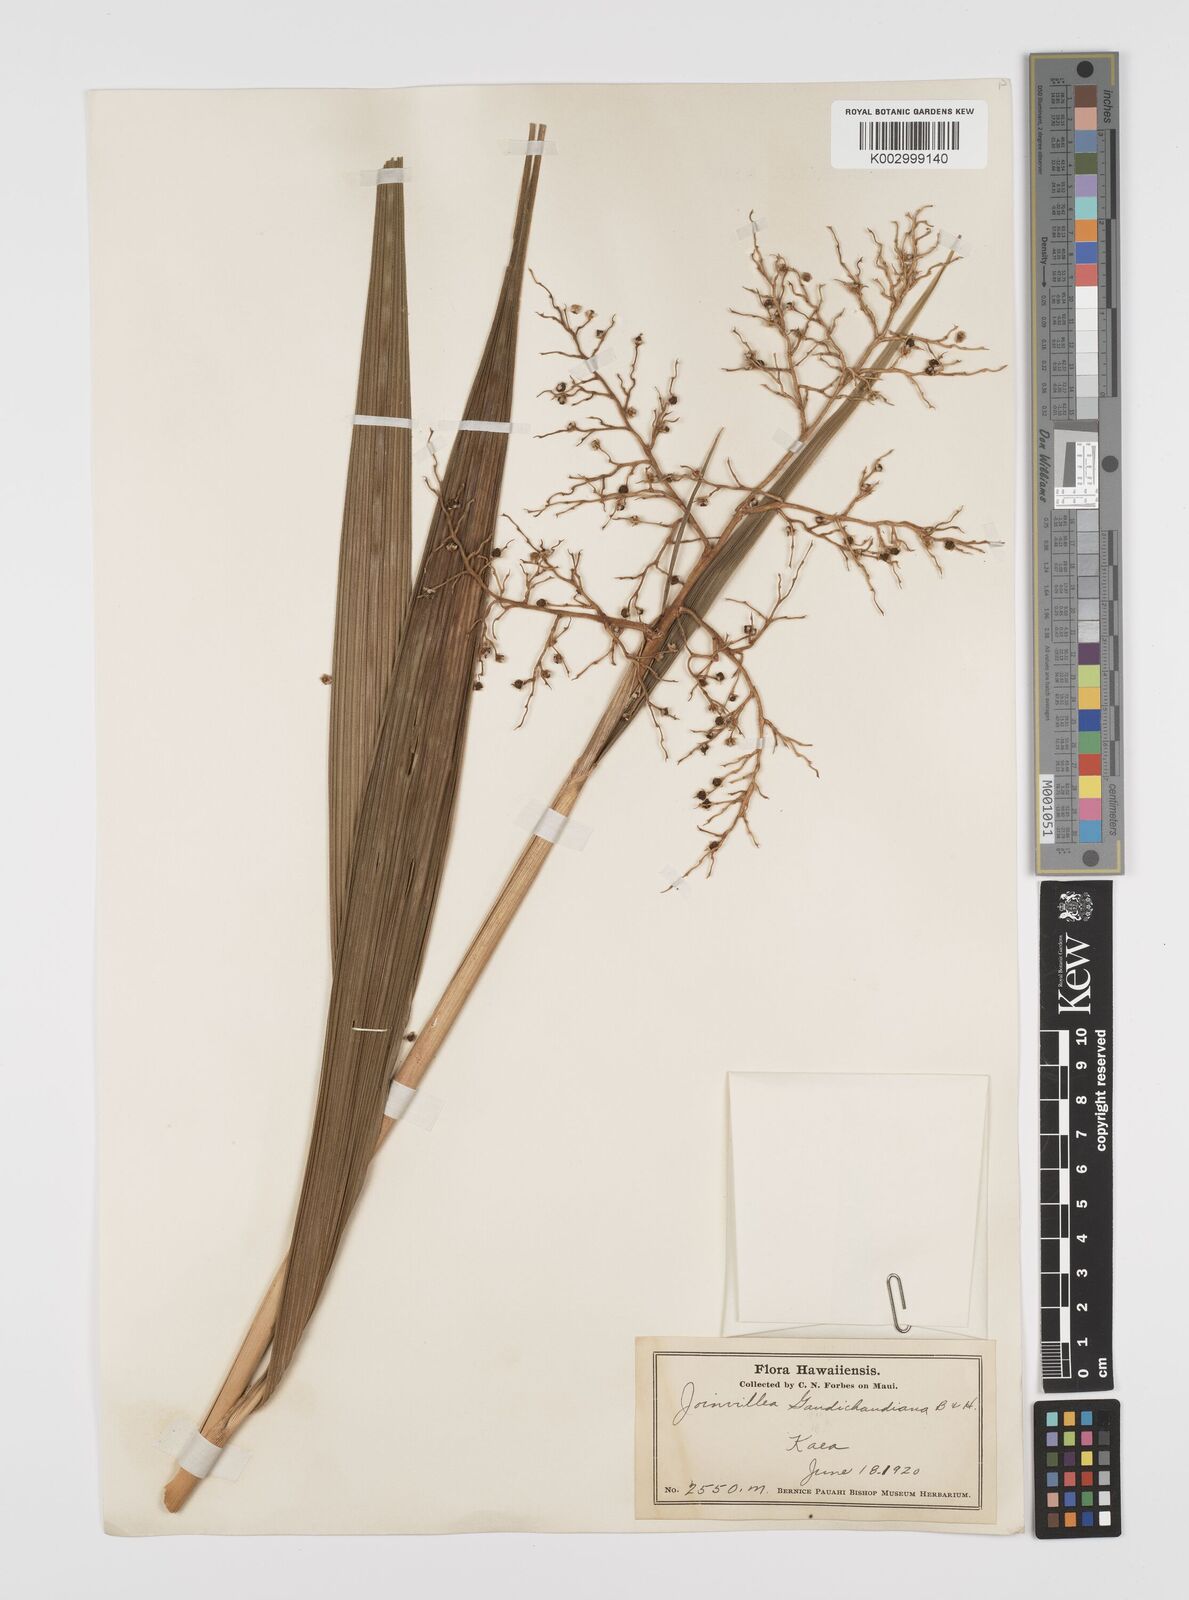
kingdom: Plantae
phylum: Tracheophyta
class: Liliopsida
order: Poales
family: Joinvilleaceae
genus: Joinvillea
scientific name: Joinvillea ascendens
